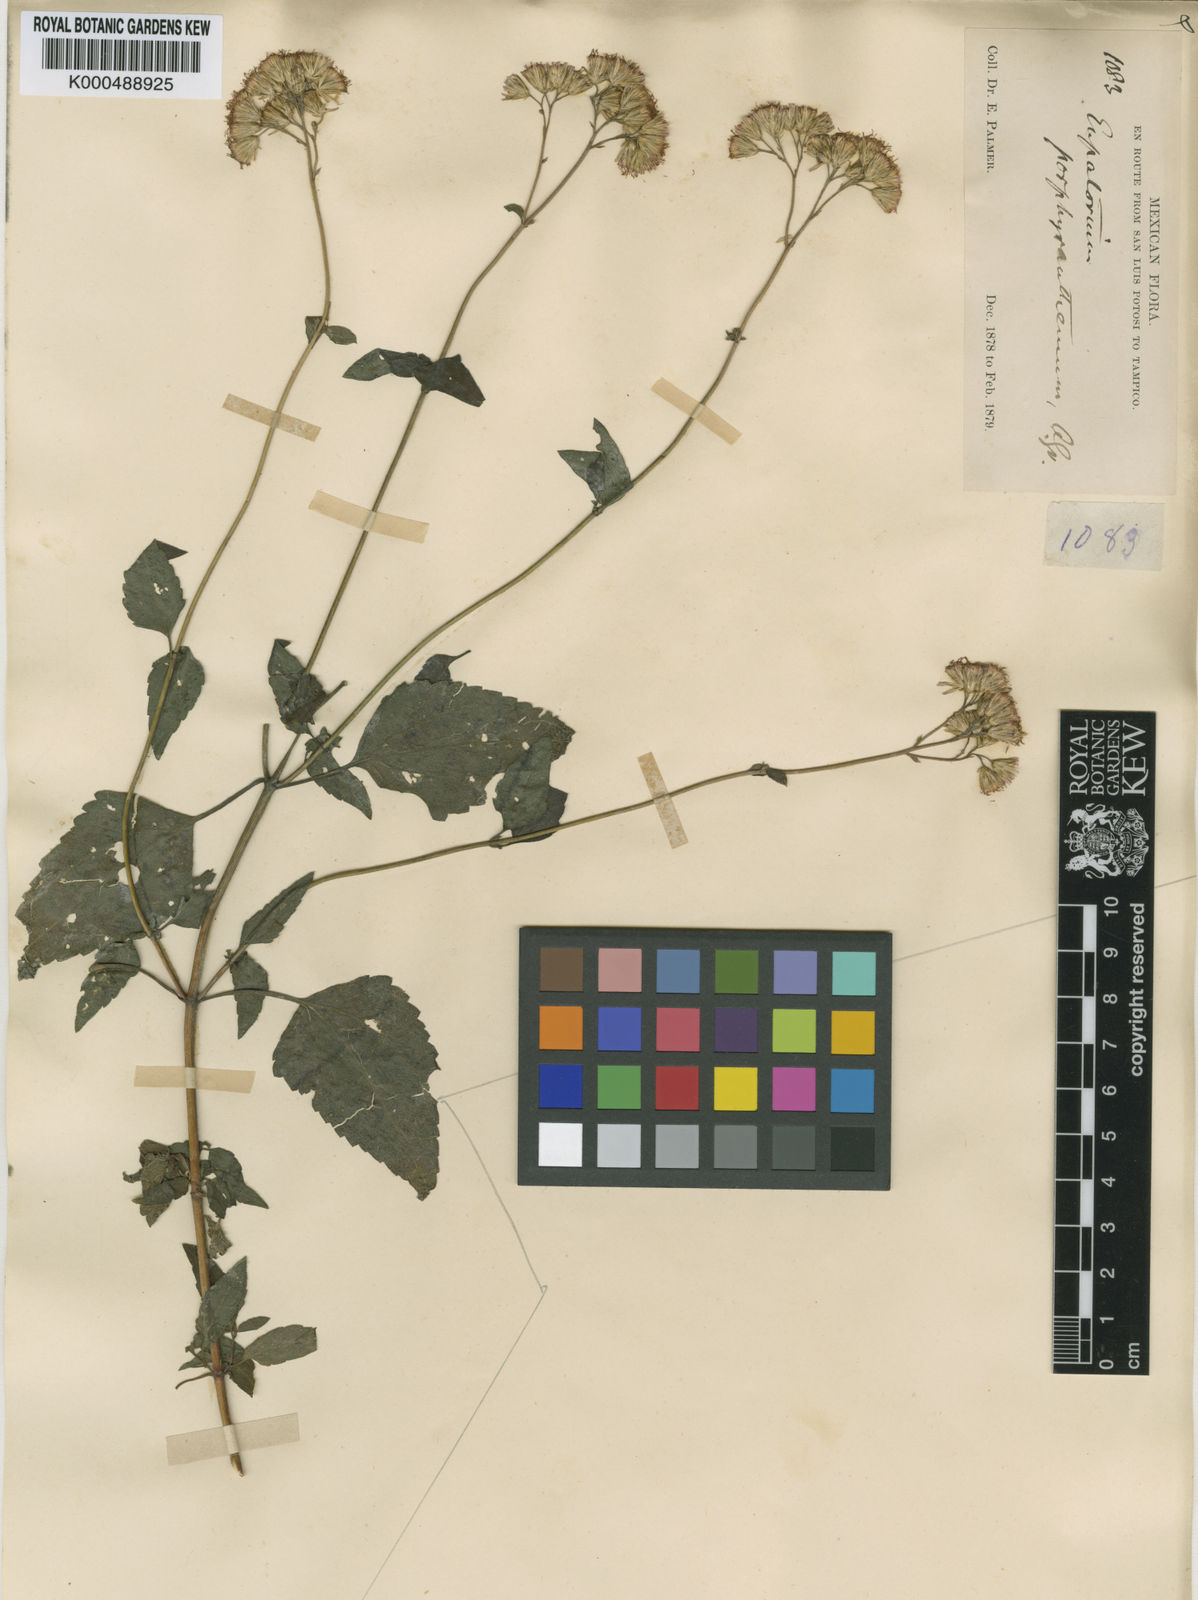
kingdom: Plantae
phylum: Tracheophyta
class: Magnoliopsida
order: Asterales
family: Asteraceae
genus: Fleischmannia
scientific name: Fleischmannia porphyranthema
